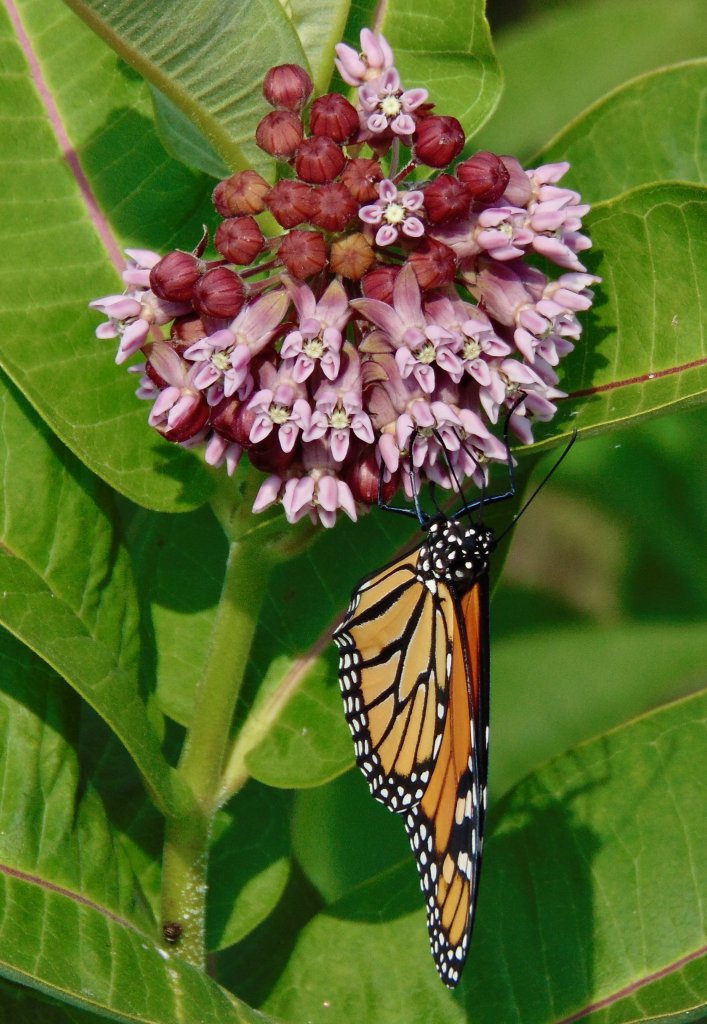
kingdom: Animalia
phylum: Arthropoda
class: Insecta
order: Lepidoptera
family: Nymphalidae
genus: Danaus
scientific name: Danaus plexippus
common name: Monarch
